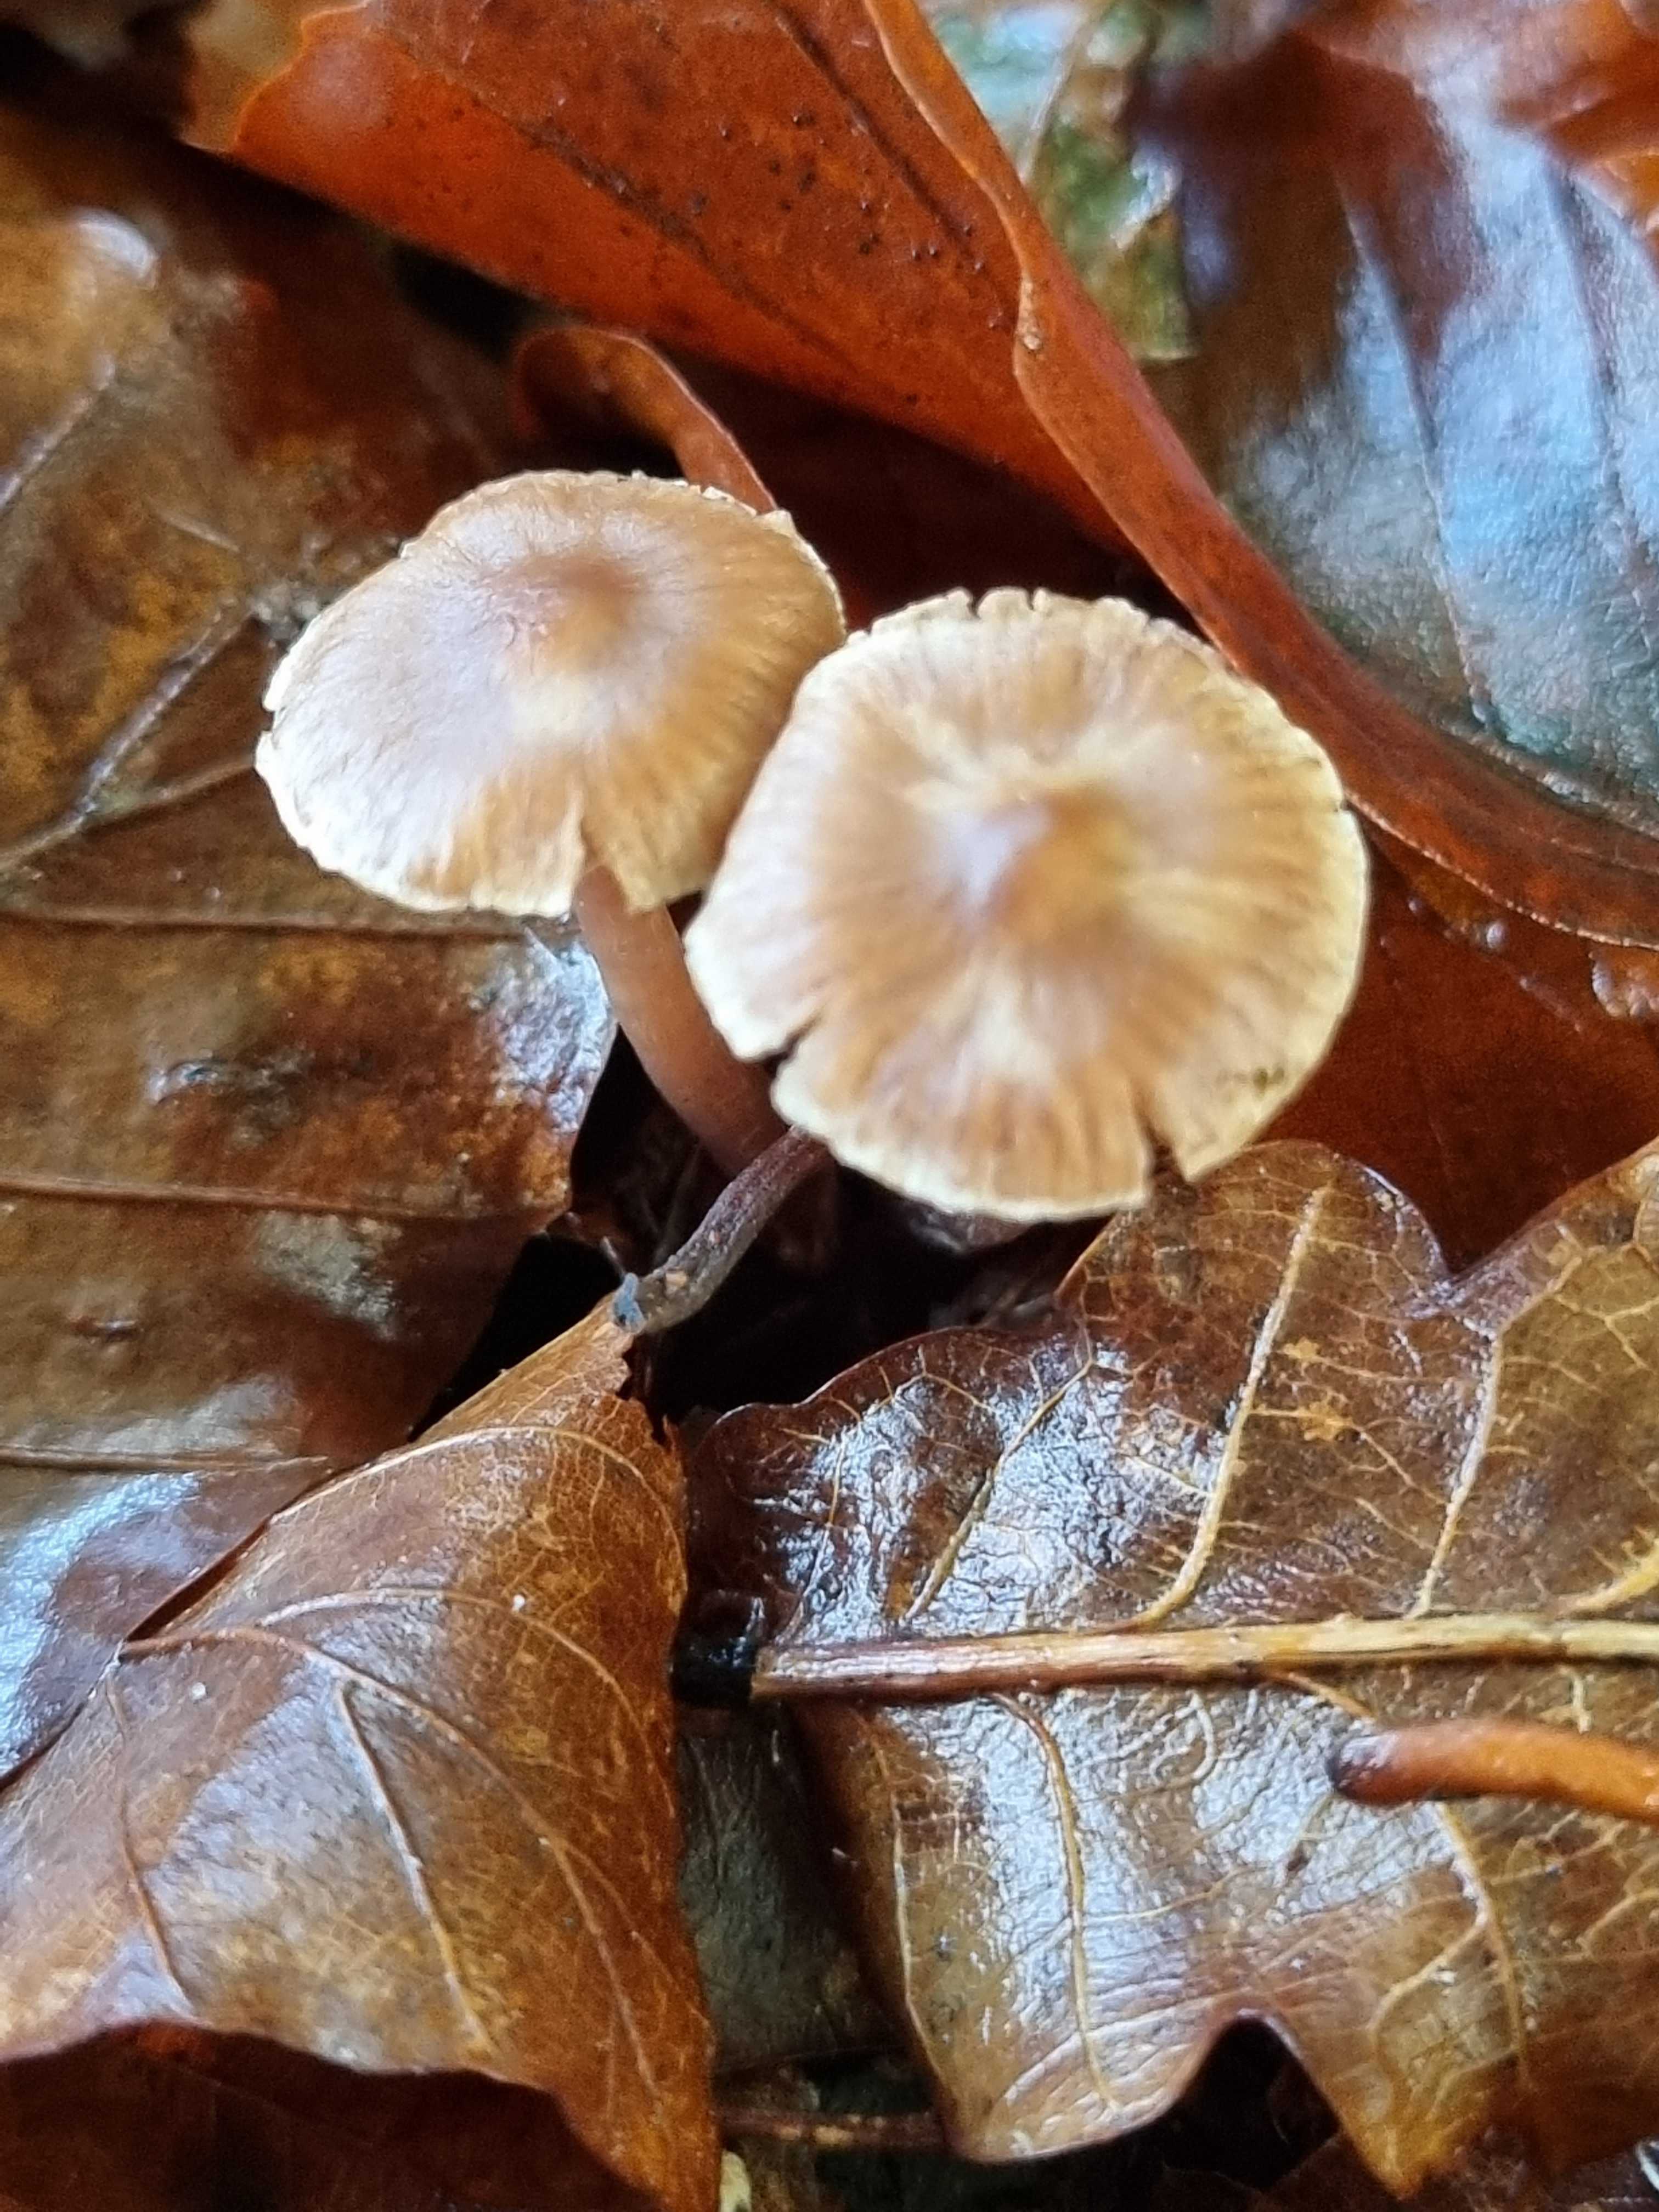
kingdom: Fungi
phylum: Basidiomycota
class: Agaricomycetes
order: Agaricales
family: Cortinariaceae
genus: Cortinarius
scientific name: Cortinarius
